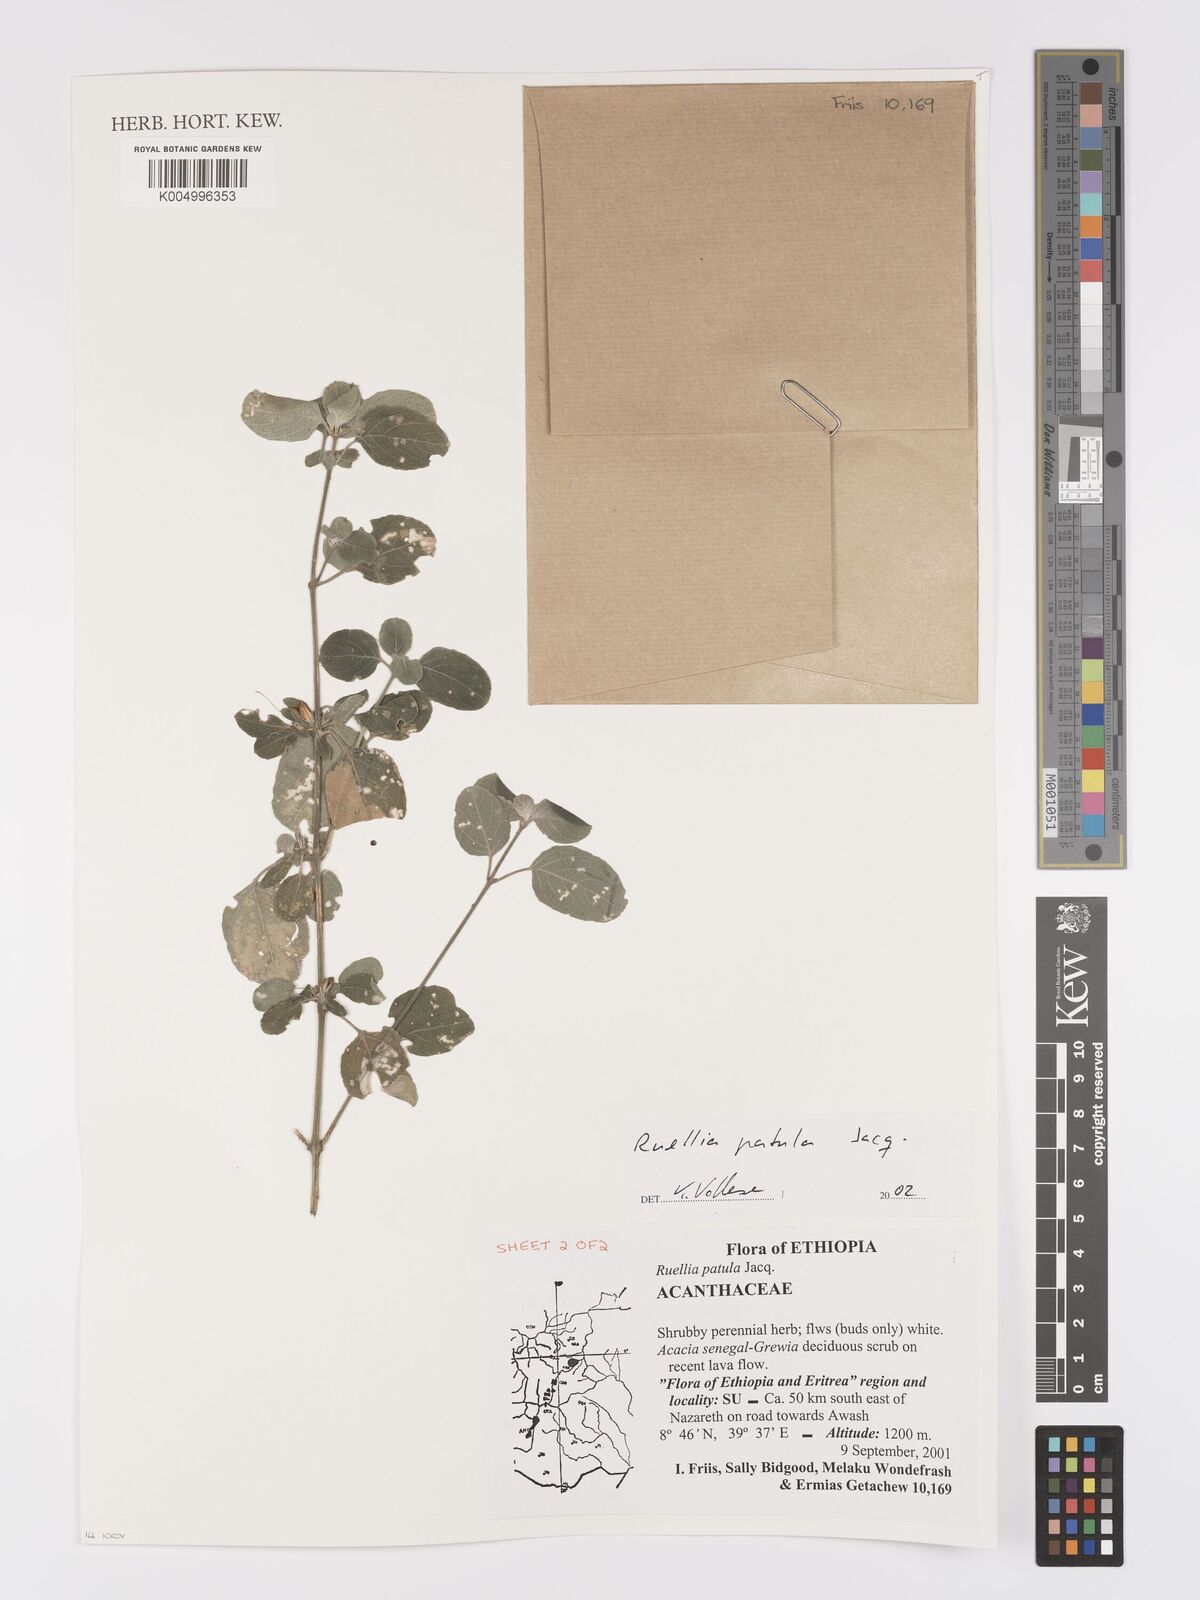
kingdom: Plantae
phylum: Tracheophyta
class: Magnoliopsida
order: Lamiales
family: Acanthaceae
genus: Ruellia
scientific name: Ruellia patula
